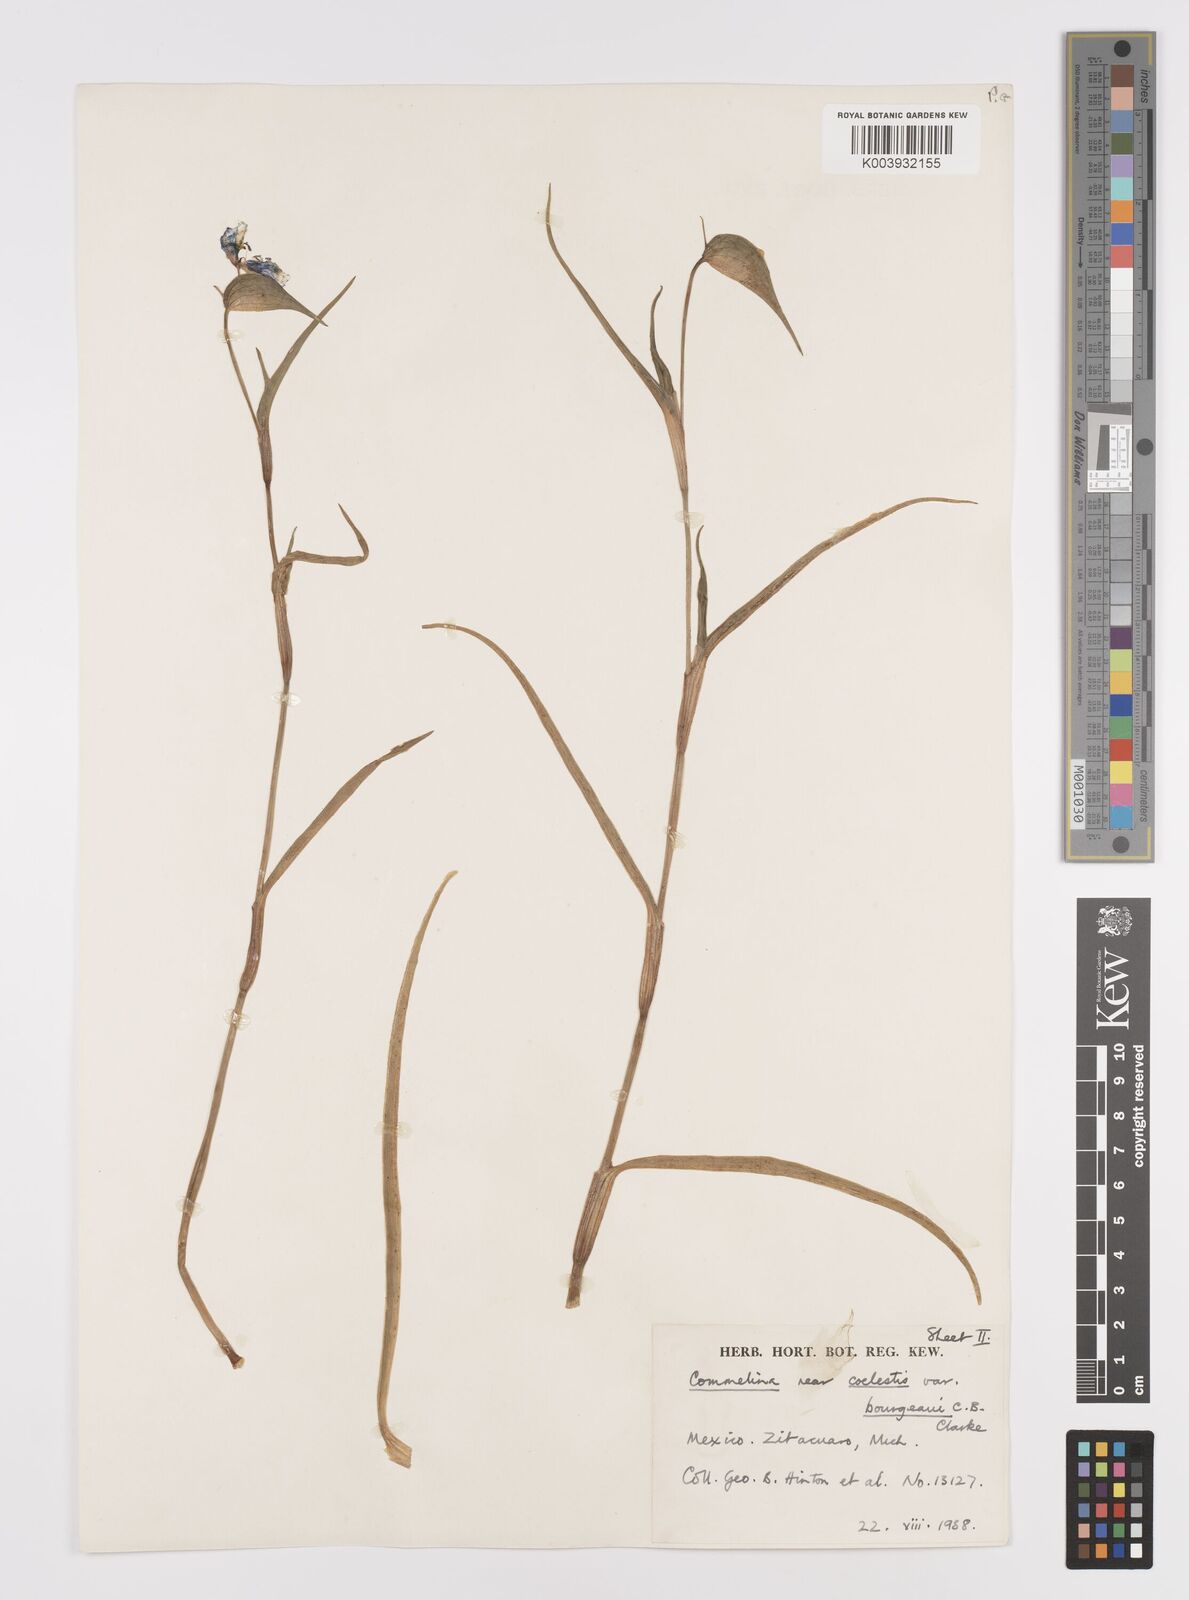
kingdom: Plantae
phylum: Tracheophyta
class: Liliopsida
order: Commelinales
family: Commelinaceae
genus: Commelina
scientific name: Commelina standleyi
